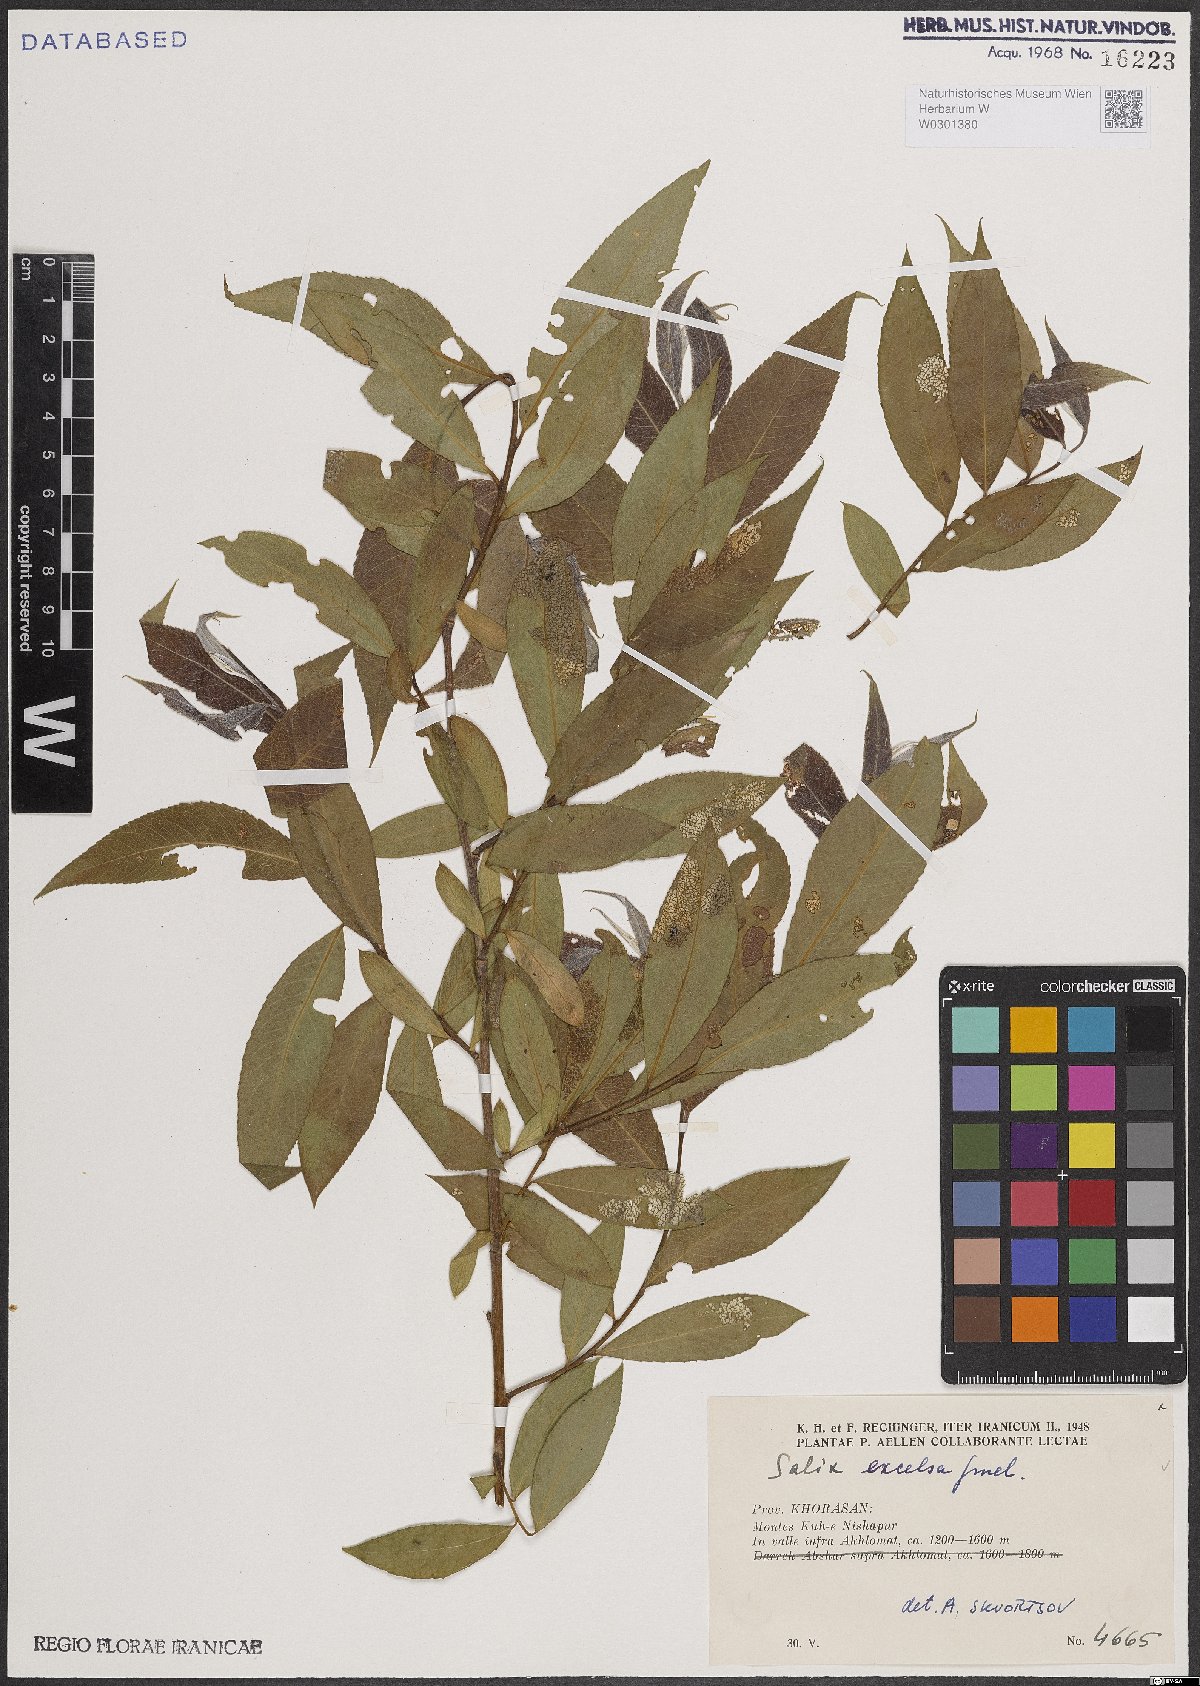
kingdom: Plantae
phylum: Tracheophyta
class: Magnoliopsida
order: Malpighiales
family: Salicaceae
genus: Salix
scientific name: Salix excelsa
